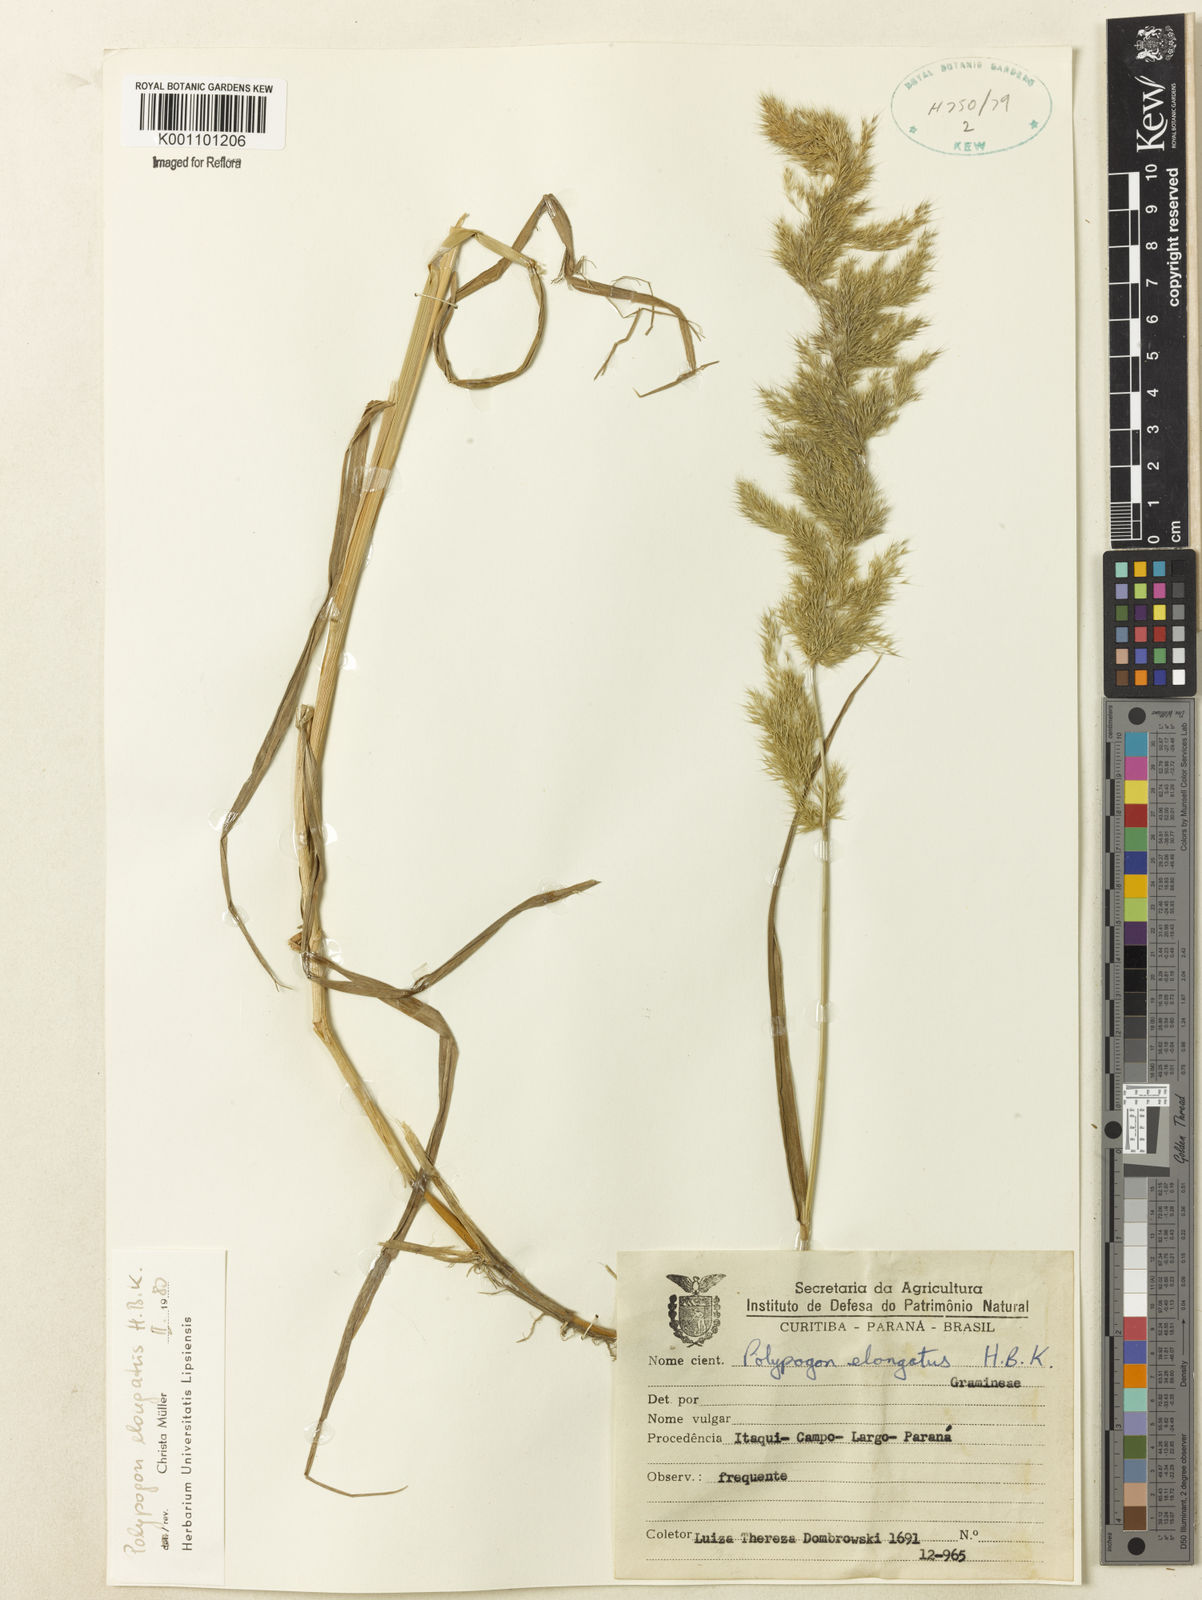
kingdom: Plantae
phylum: Tracheophyta
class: Liliopsida
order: Poales
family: Poaceae
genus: Polypogon
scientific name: Polypogon elongatus
